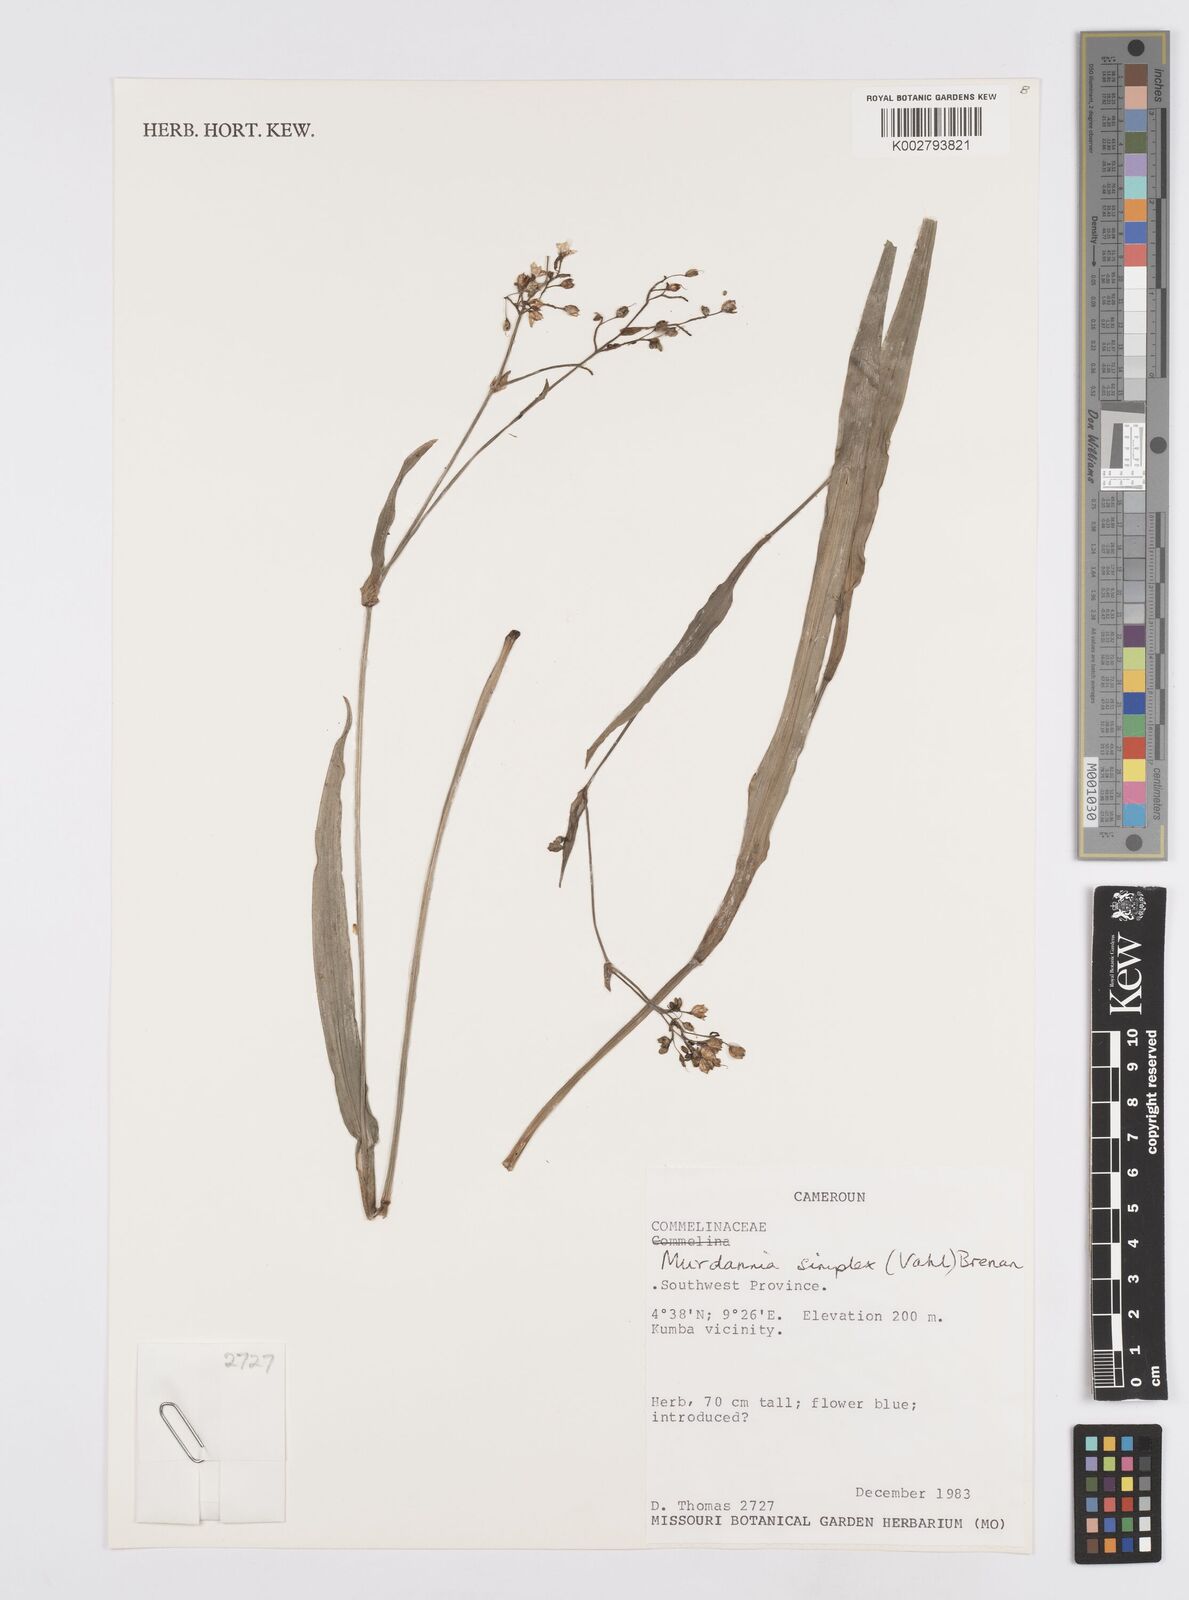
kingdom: Plantae
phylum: Tracheophyta
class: Liliopsida
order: Commelinales
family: Commelinaceae
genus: Murdannia
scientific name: Murdannia simplex
